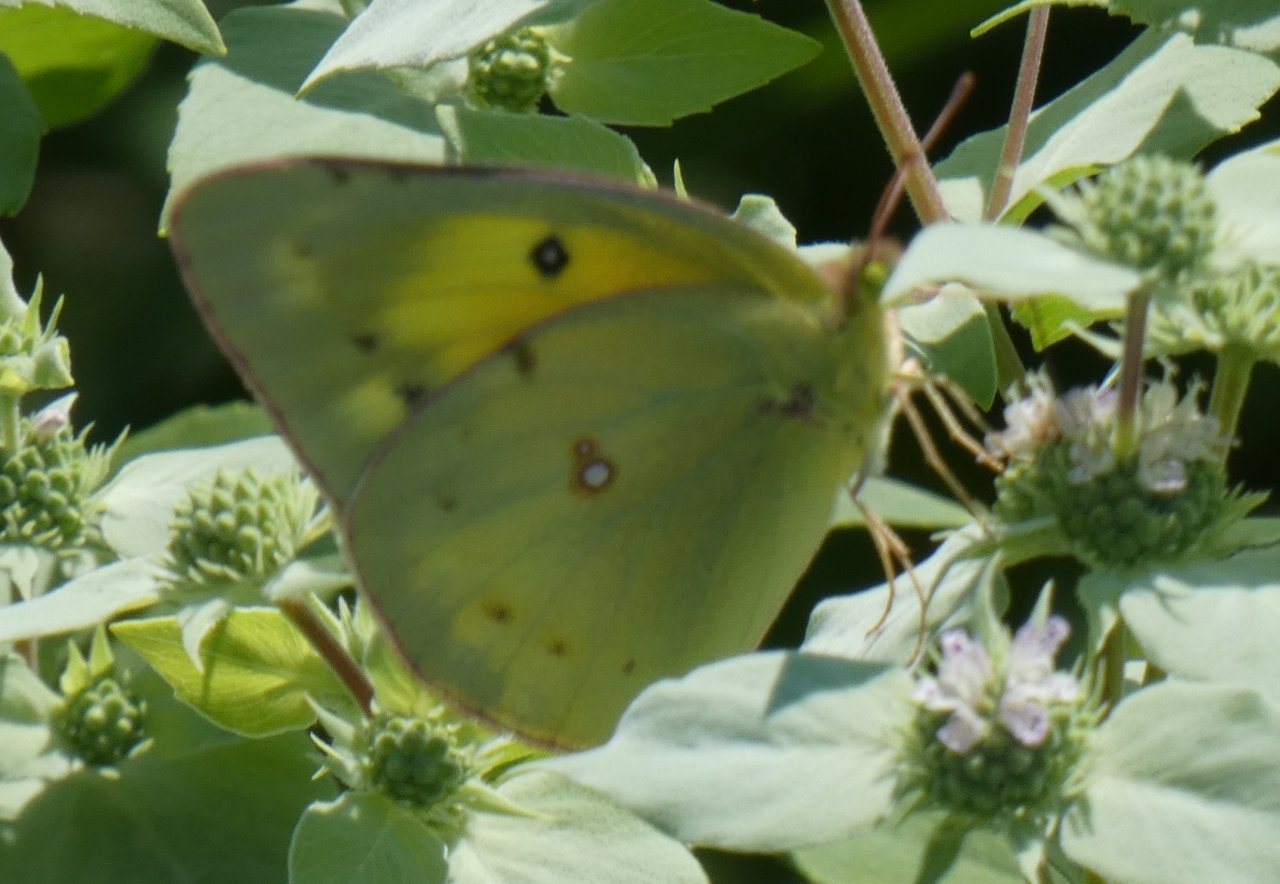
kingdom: Animalia
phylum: Arthropoda
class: Insecta
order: Lepidoptera
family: Pieridae
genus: Colias
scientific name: Colias eurytheme
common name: Orange Sulphur
